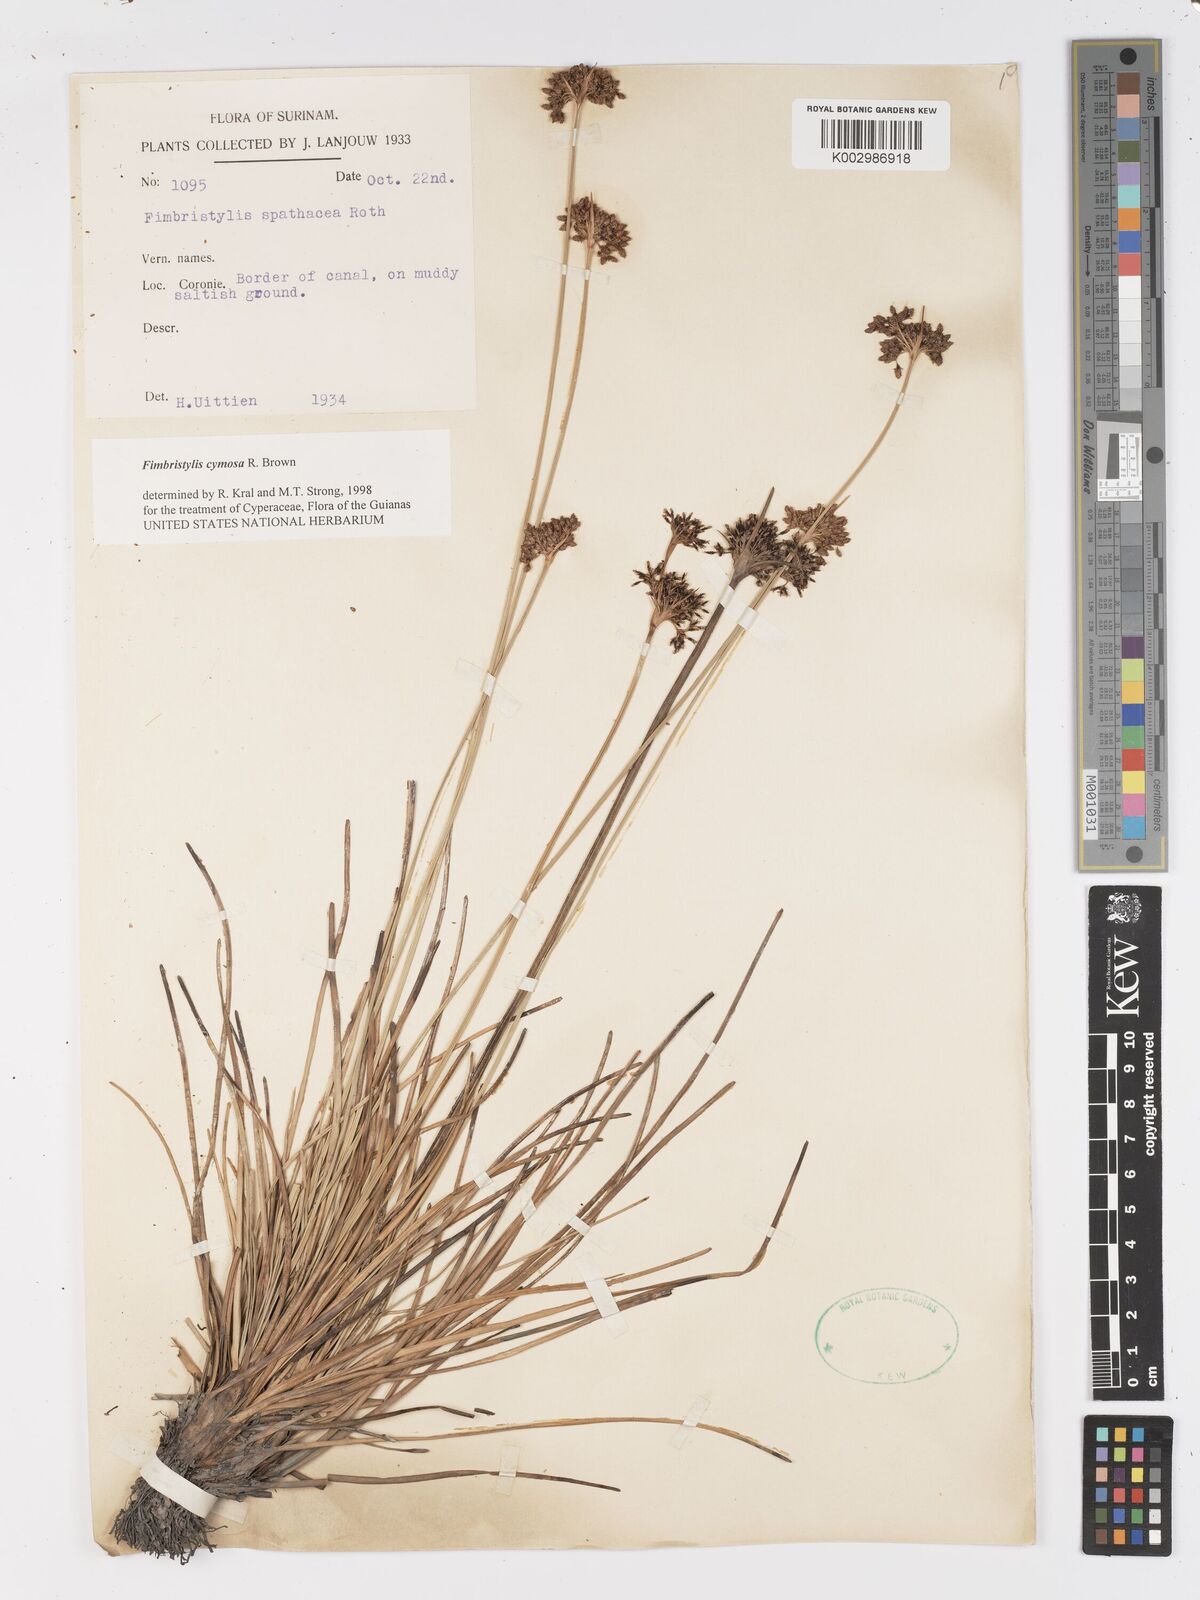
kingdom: Plantae
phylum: Tracheophyta
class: Liliopsida
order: Poales
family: Cyperaceae
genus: Fimbristylis
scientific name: Fimbristylis cymosa
